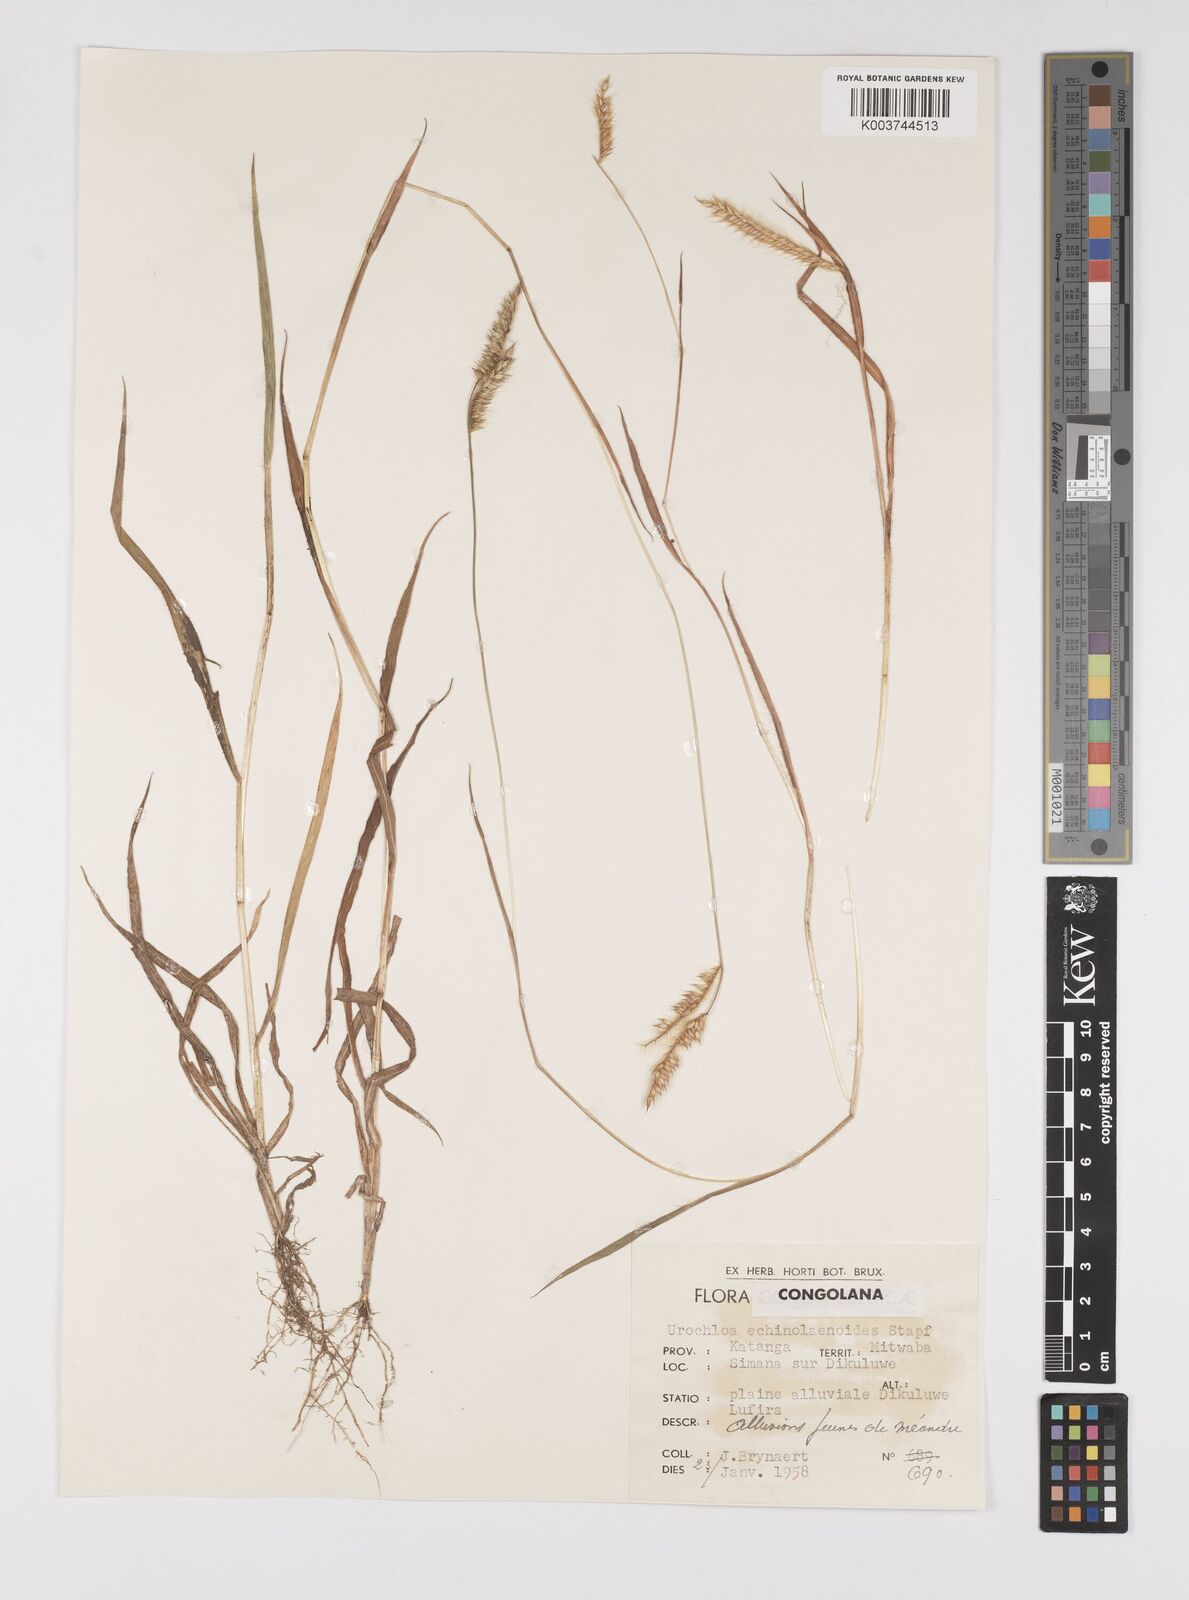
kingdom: Plantae
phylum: Tracheophyta
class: Liliopsida
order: Poales
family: Poaceae
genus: Urochloa
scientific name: Urochloa echinolaenoides
